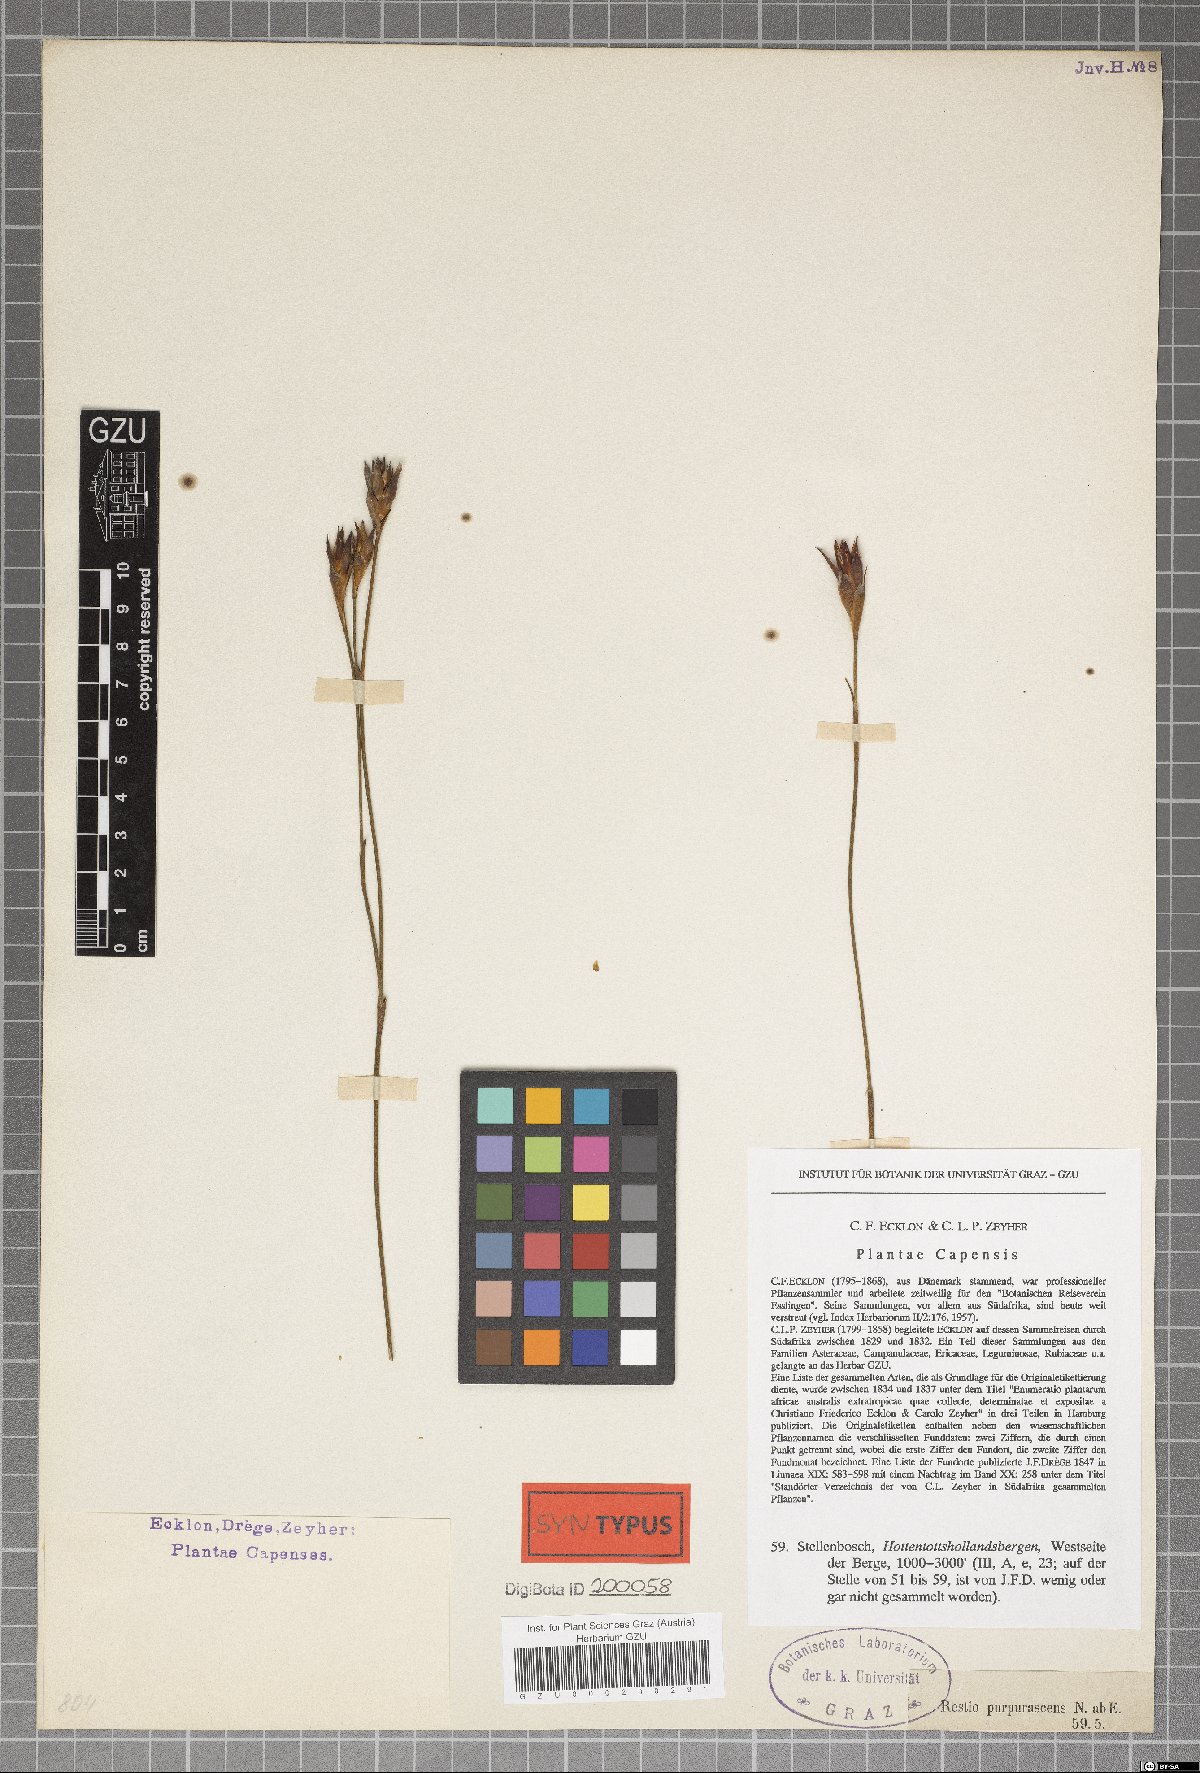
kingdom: Plantae
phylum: Tracheophyta
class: Liliopsida
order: Poales
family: Restionaceae
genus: Restio
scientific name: Restio purpurascens
